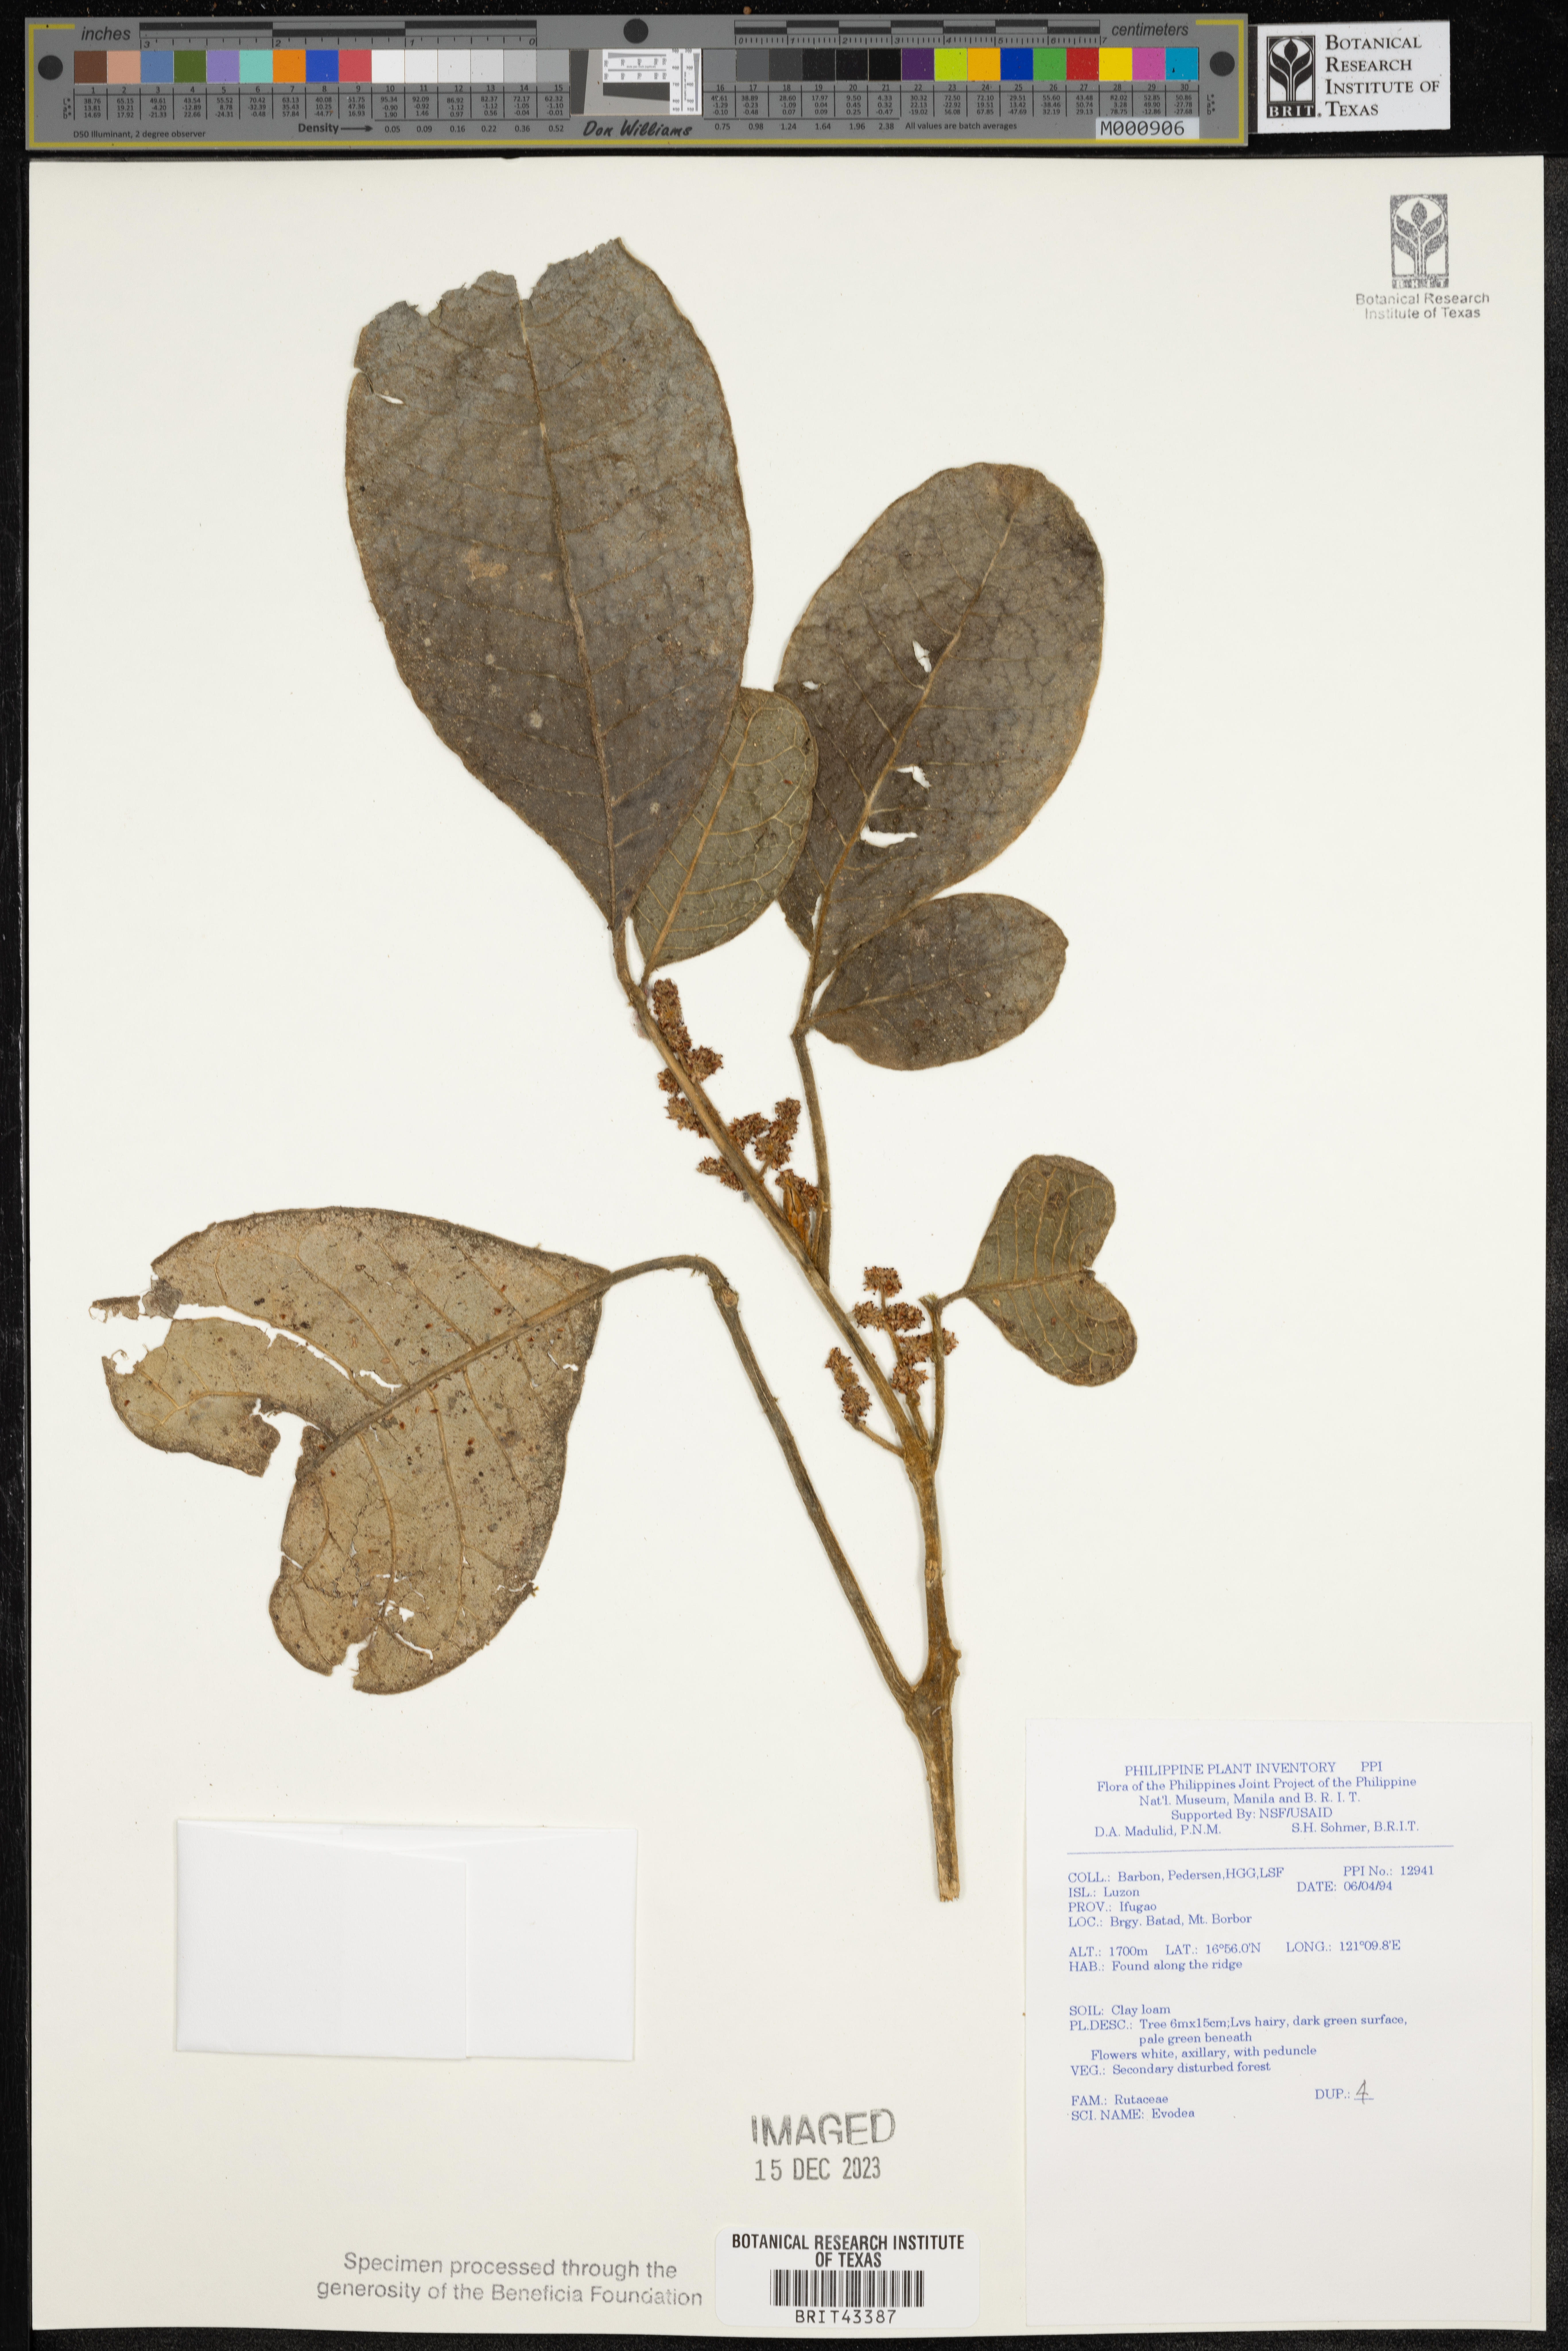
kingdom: Plantae
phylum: Tracheophyta
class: Magnoliopsida
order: Sapindales
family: Rutaceae
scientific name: Rutaceae
